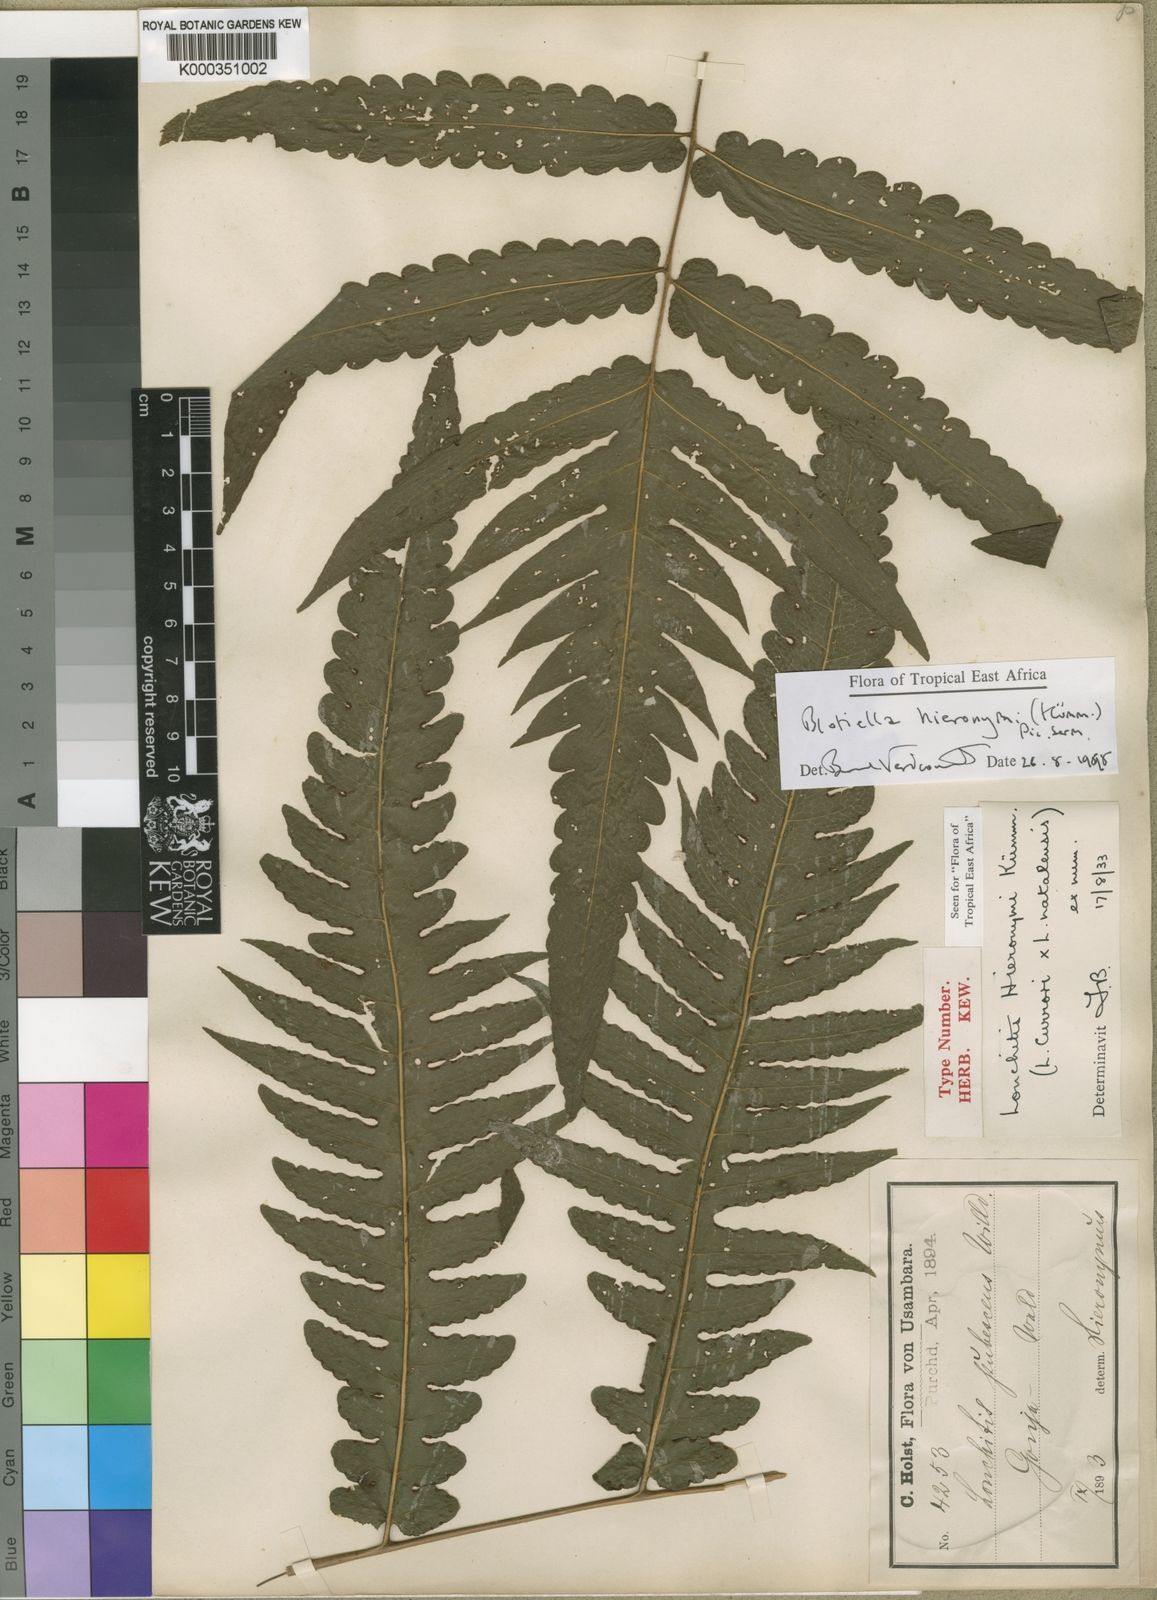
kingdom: Plantae
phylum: Tracheophyta
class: Polypodiopsida
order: Polypodiales
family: Dennstaedtiaceae
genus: Blotiella
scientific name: Blotiella hieronymi
